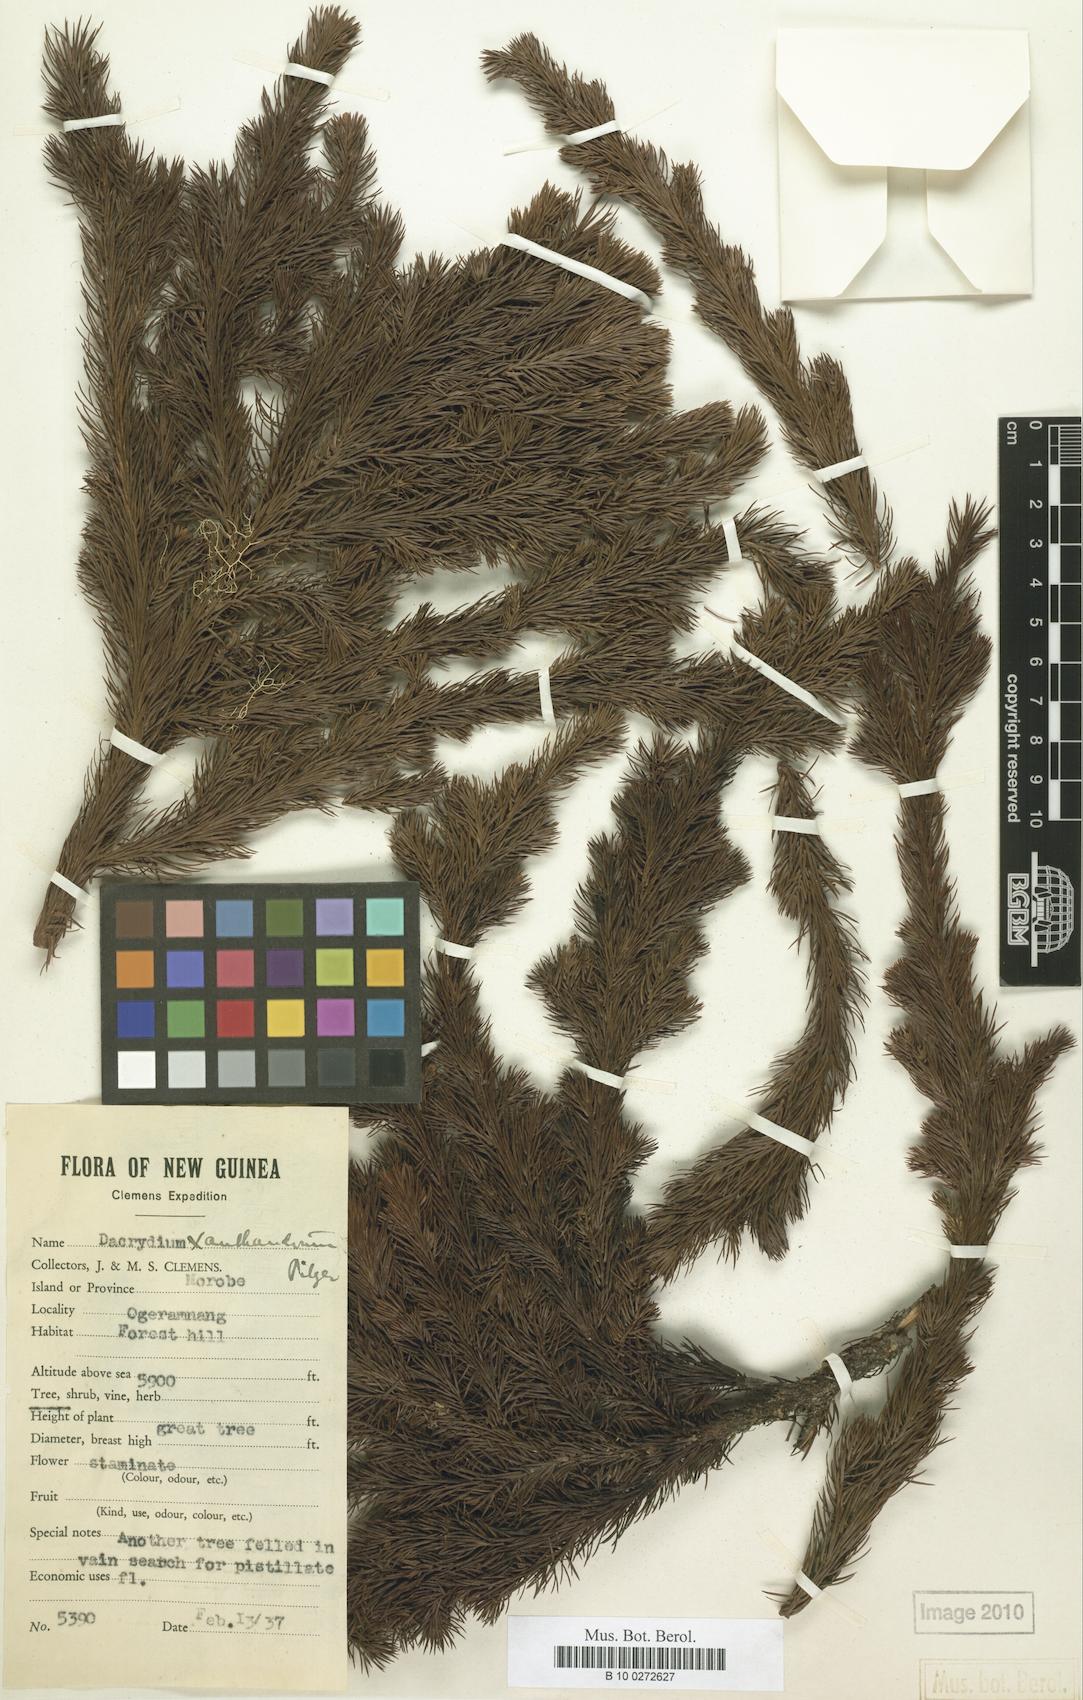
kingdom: Plantae
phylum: Tracheophyta
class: Pinopsida
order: Pinales
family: Podocarpaceae
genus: Dacrydium
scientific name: Dacrydium xanthandrum
